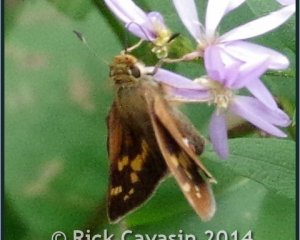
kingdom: Animalia
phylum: Arthropoda
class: Insecta
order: Lepidoptera
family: Hesperiidae
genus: Hesperia
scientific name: Hesperia leonardus
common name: Leonard's Skipper
